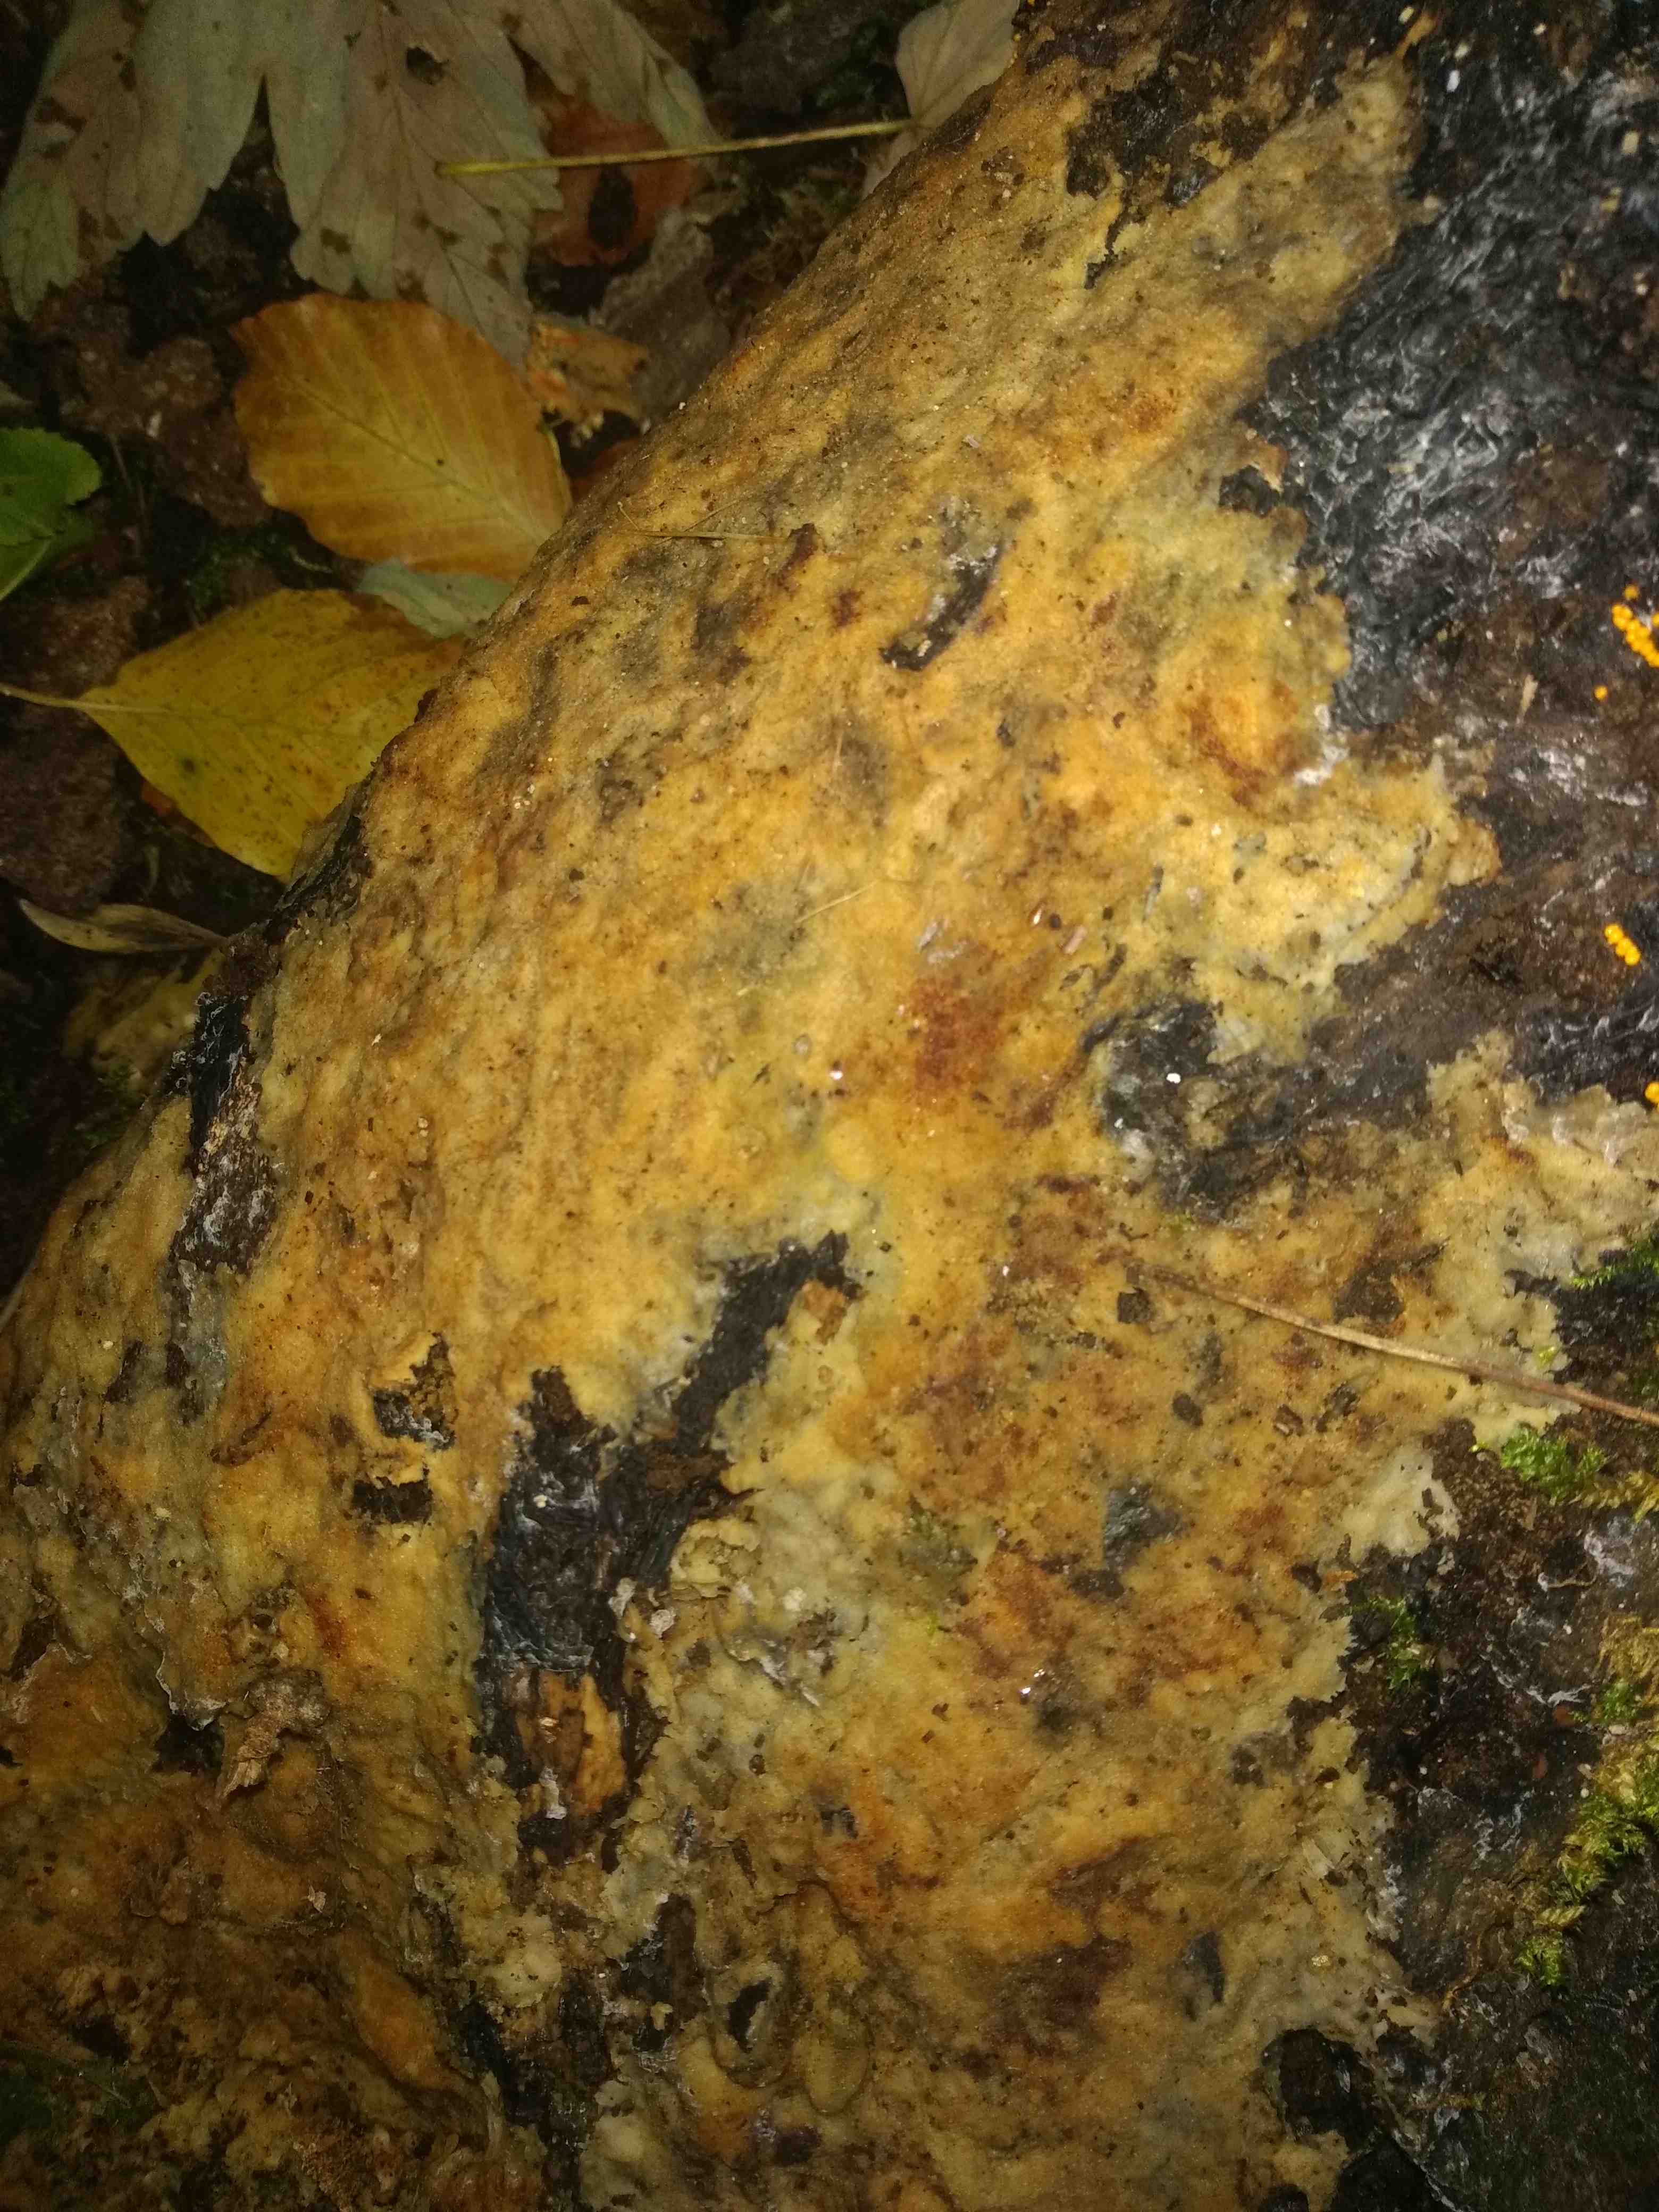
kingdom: Fungi
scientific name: Fungi
